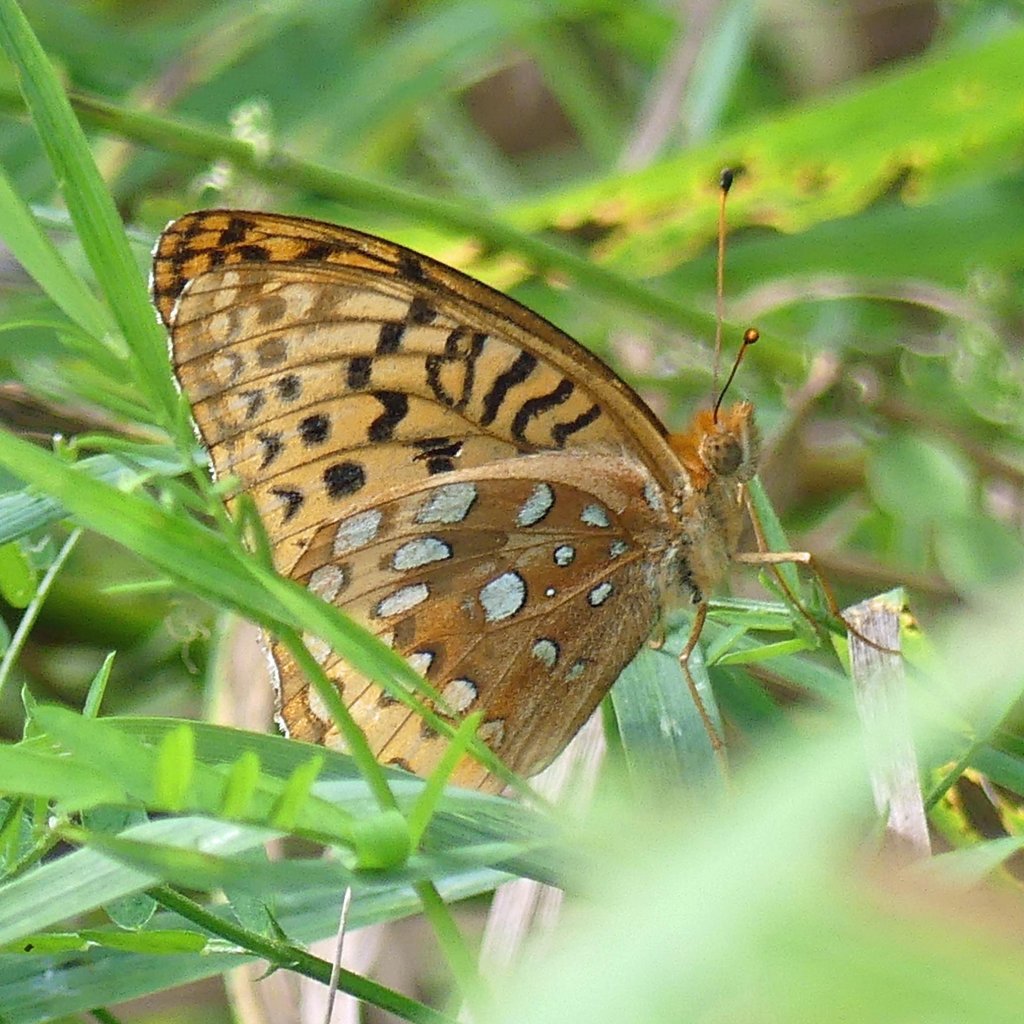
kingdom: Animalia
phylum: Arthropoda
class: Insecta
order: Lepidoptera
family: Nymphalidae
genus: Speyeria
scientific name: Speyeria cybele
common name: Great Spangled Fritillary
